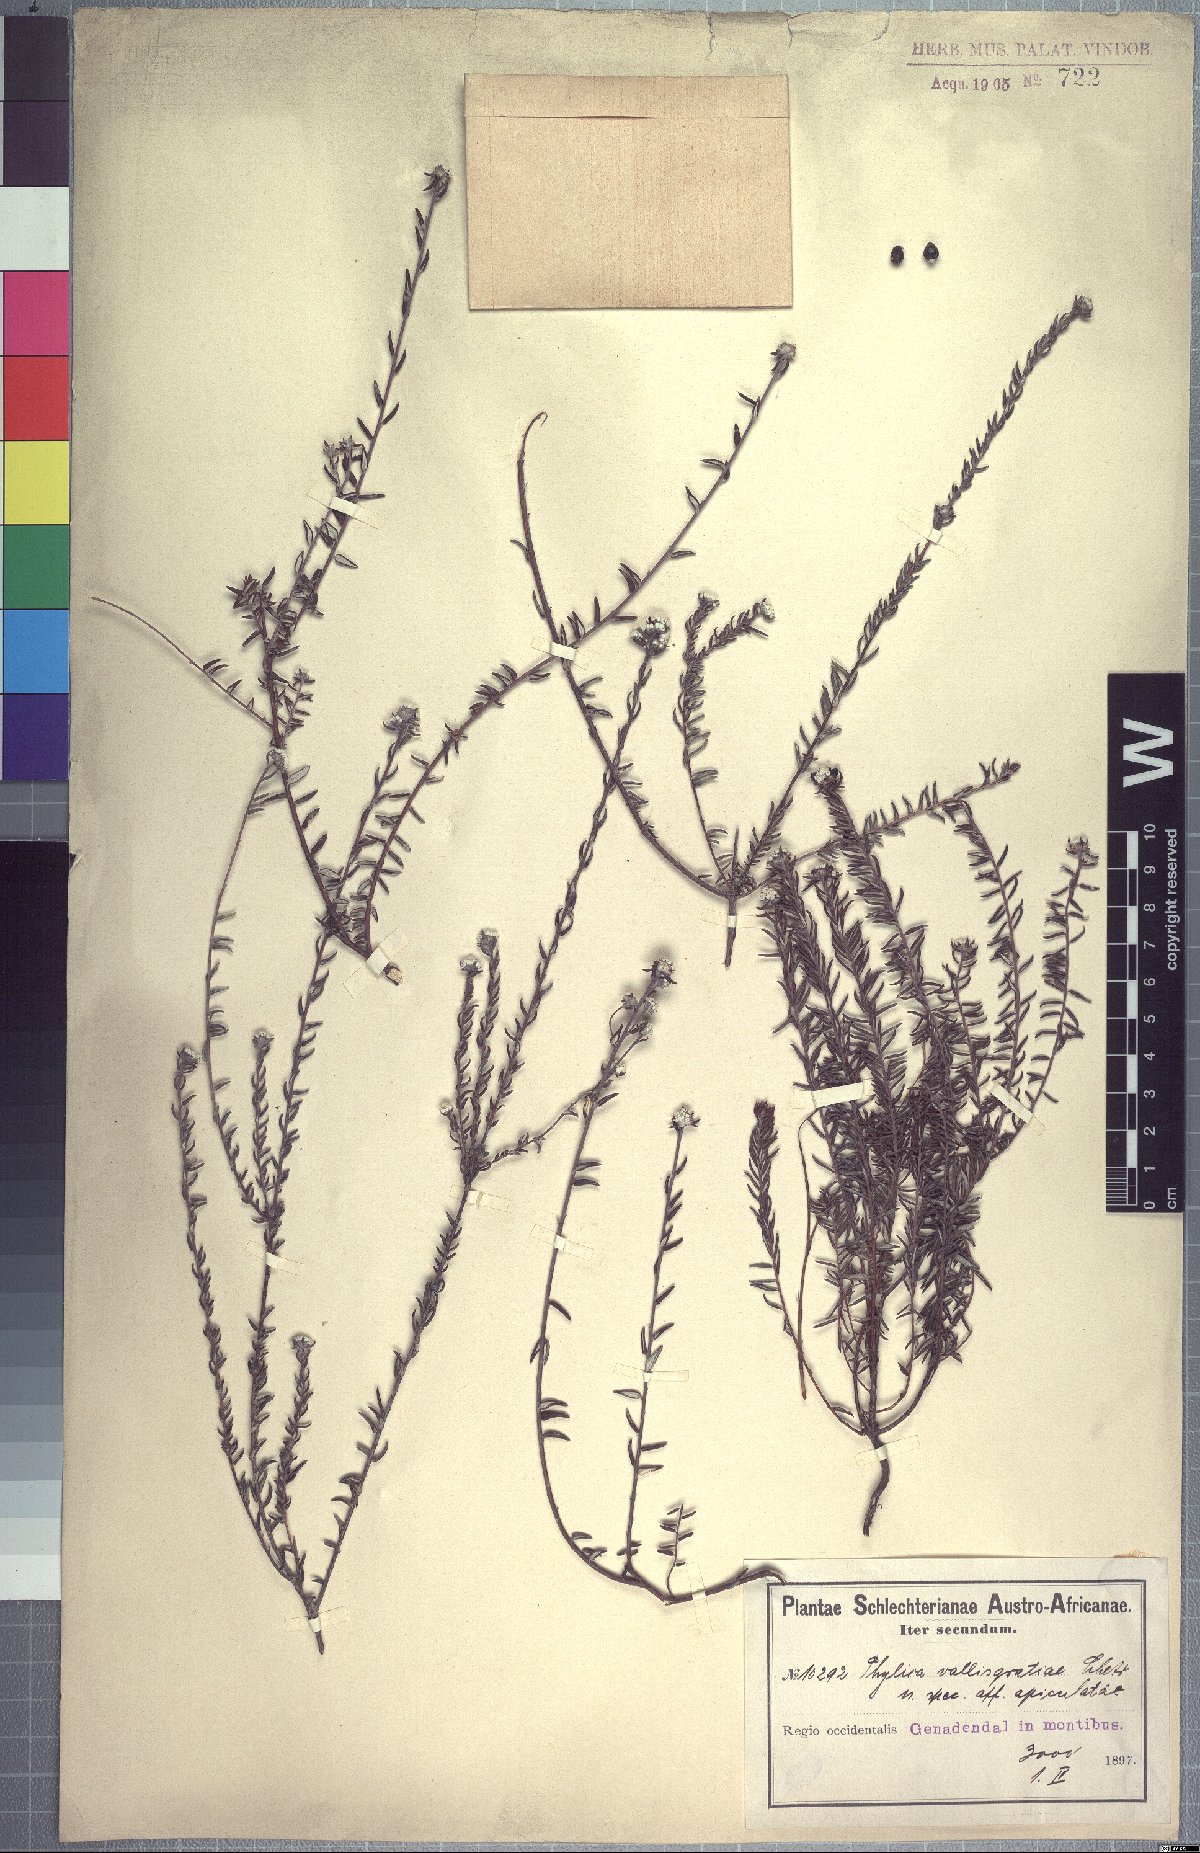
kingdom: Plantae
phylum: Tracheophyta
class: Magnoliopsida
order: Rosales
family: Rhamnaceae
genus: Phylica
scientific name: Phylica diffusa
